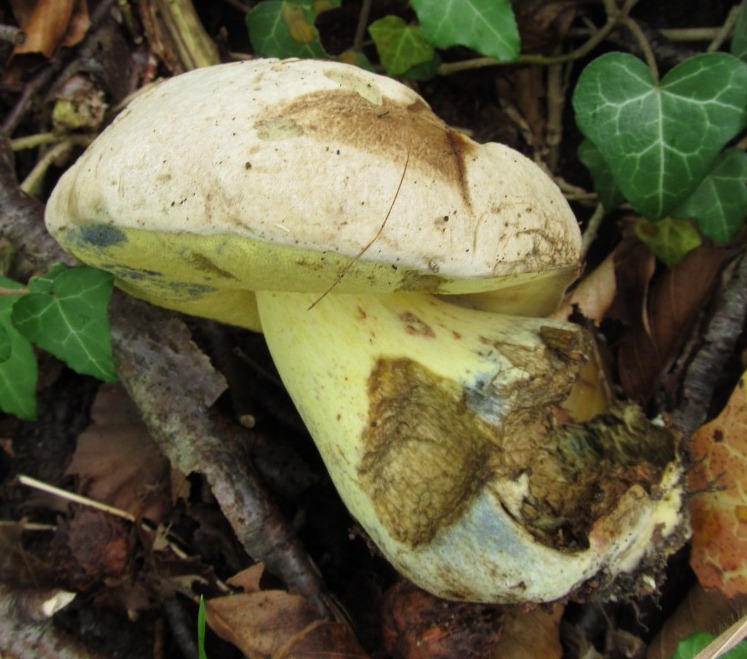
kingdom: Fungi
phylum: Basidiomycota
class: Agaricomycetes
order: Boletales
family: Boletaceae
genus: Caloboletus
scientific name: Caloboletus radicans
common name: rod-rørhat
